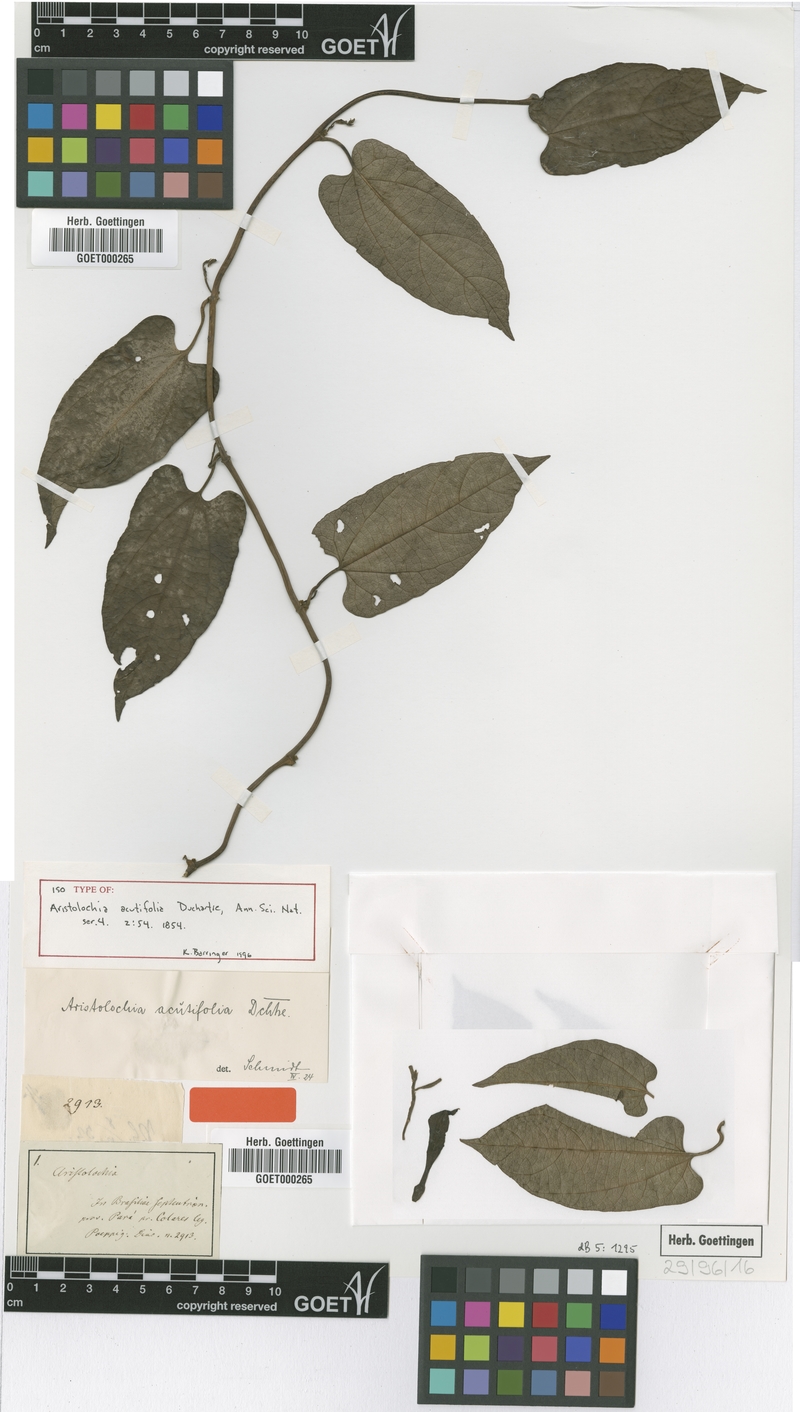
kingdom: Plantae
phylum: Tracheophyta
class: Magnoliopsida
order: Piperales
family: Aristolochiaceae
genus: Aristolochia
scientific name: Aristolochia acutifolia
